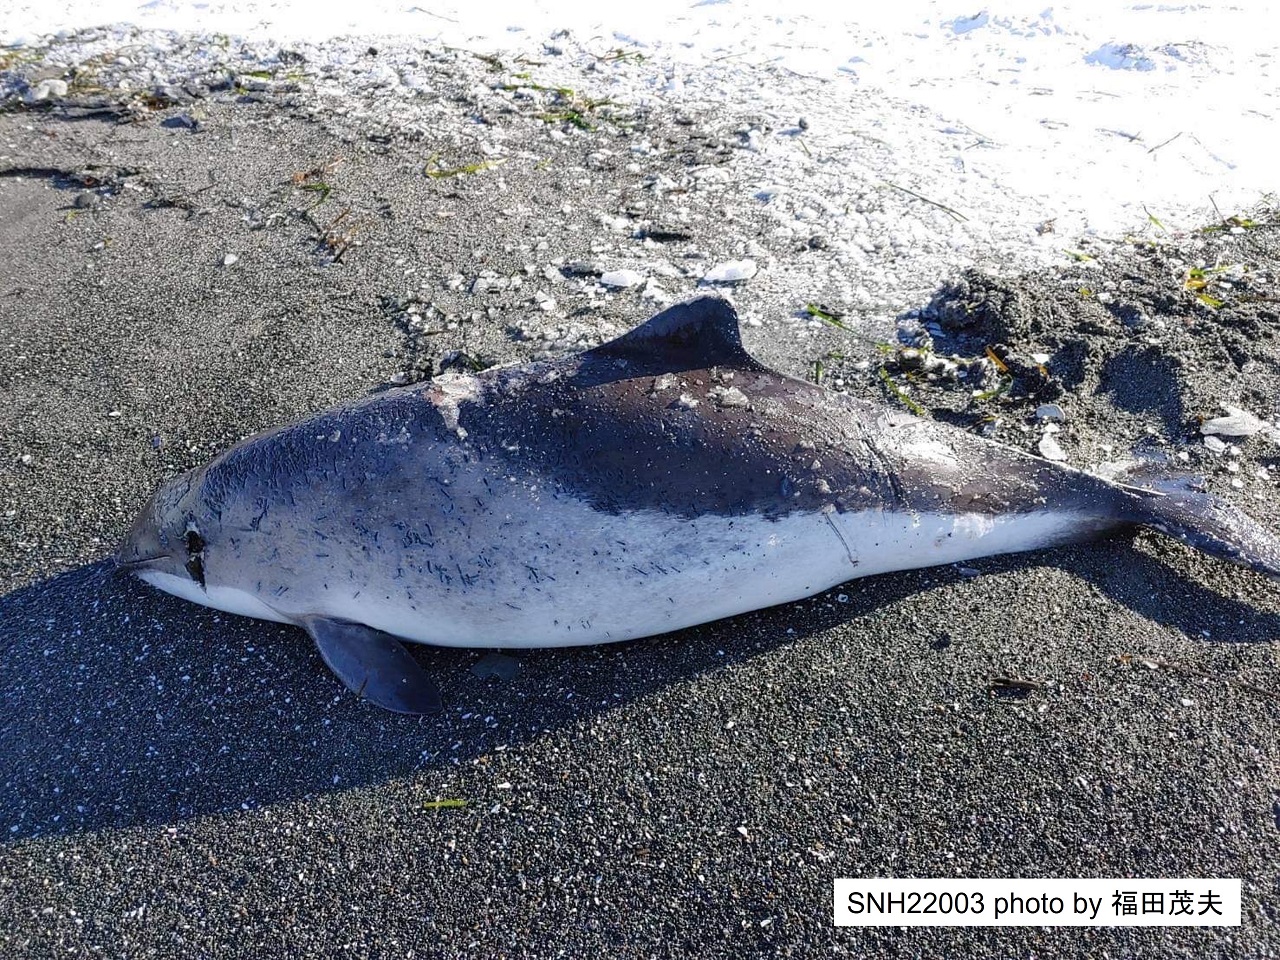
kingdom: Animalia
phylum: Chordata
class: Mammalia
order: Cetacea
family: Phocoenidae
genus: Phocoena
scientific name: Phocoena phocoena
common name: Harbour porpoise
